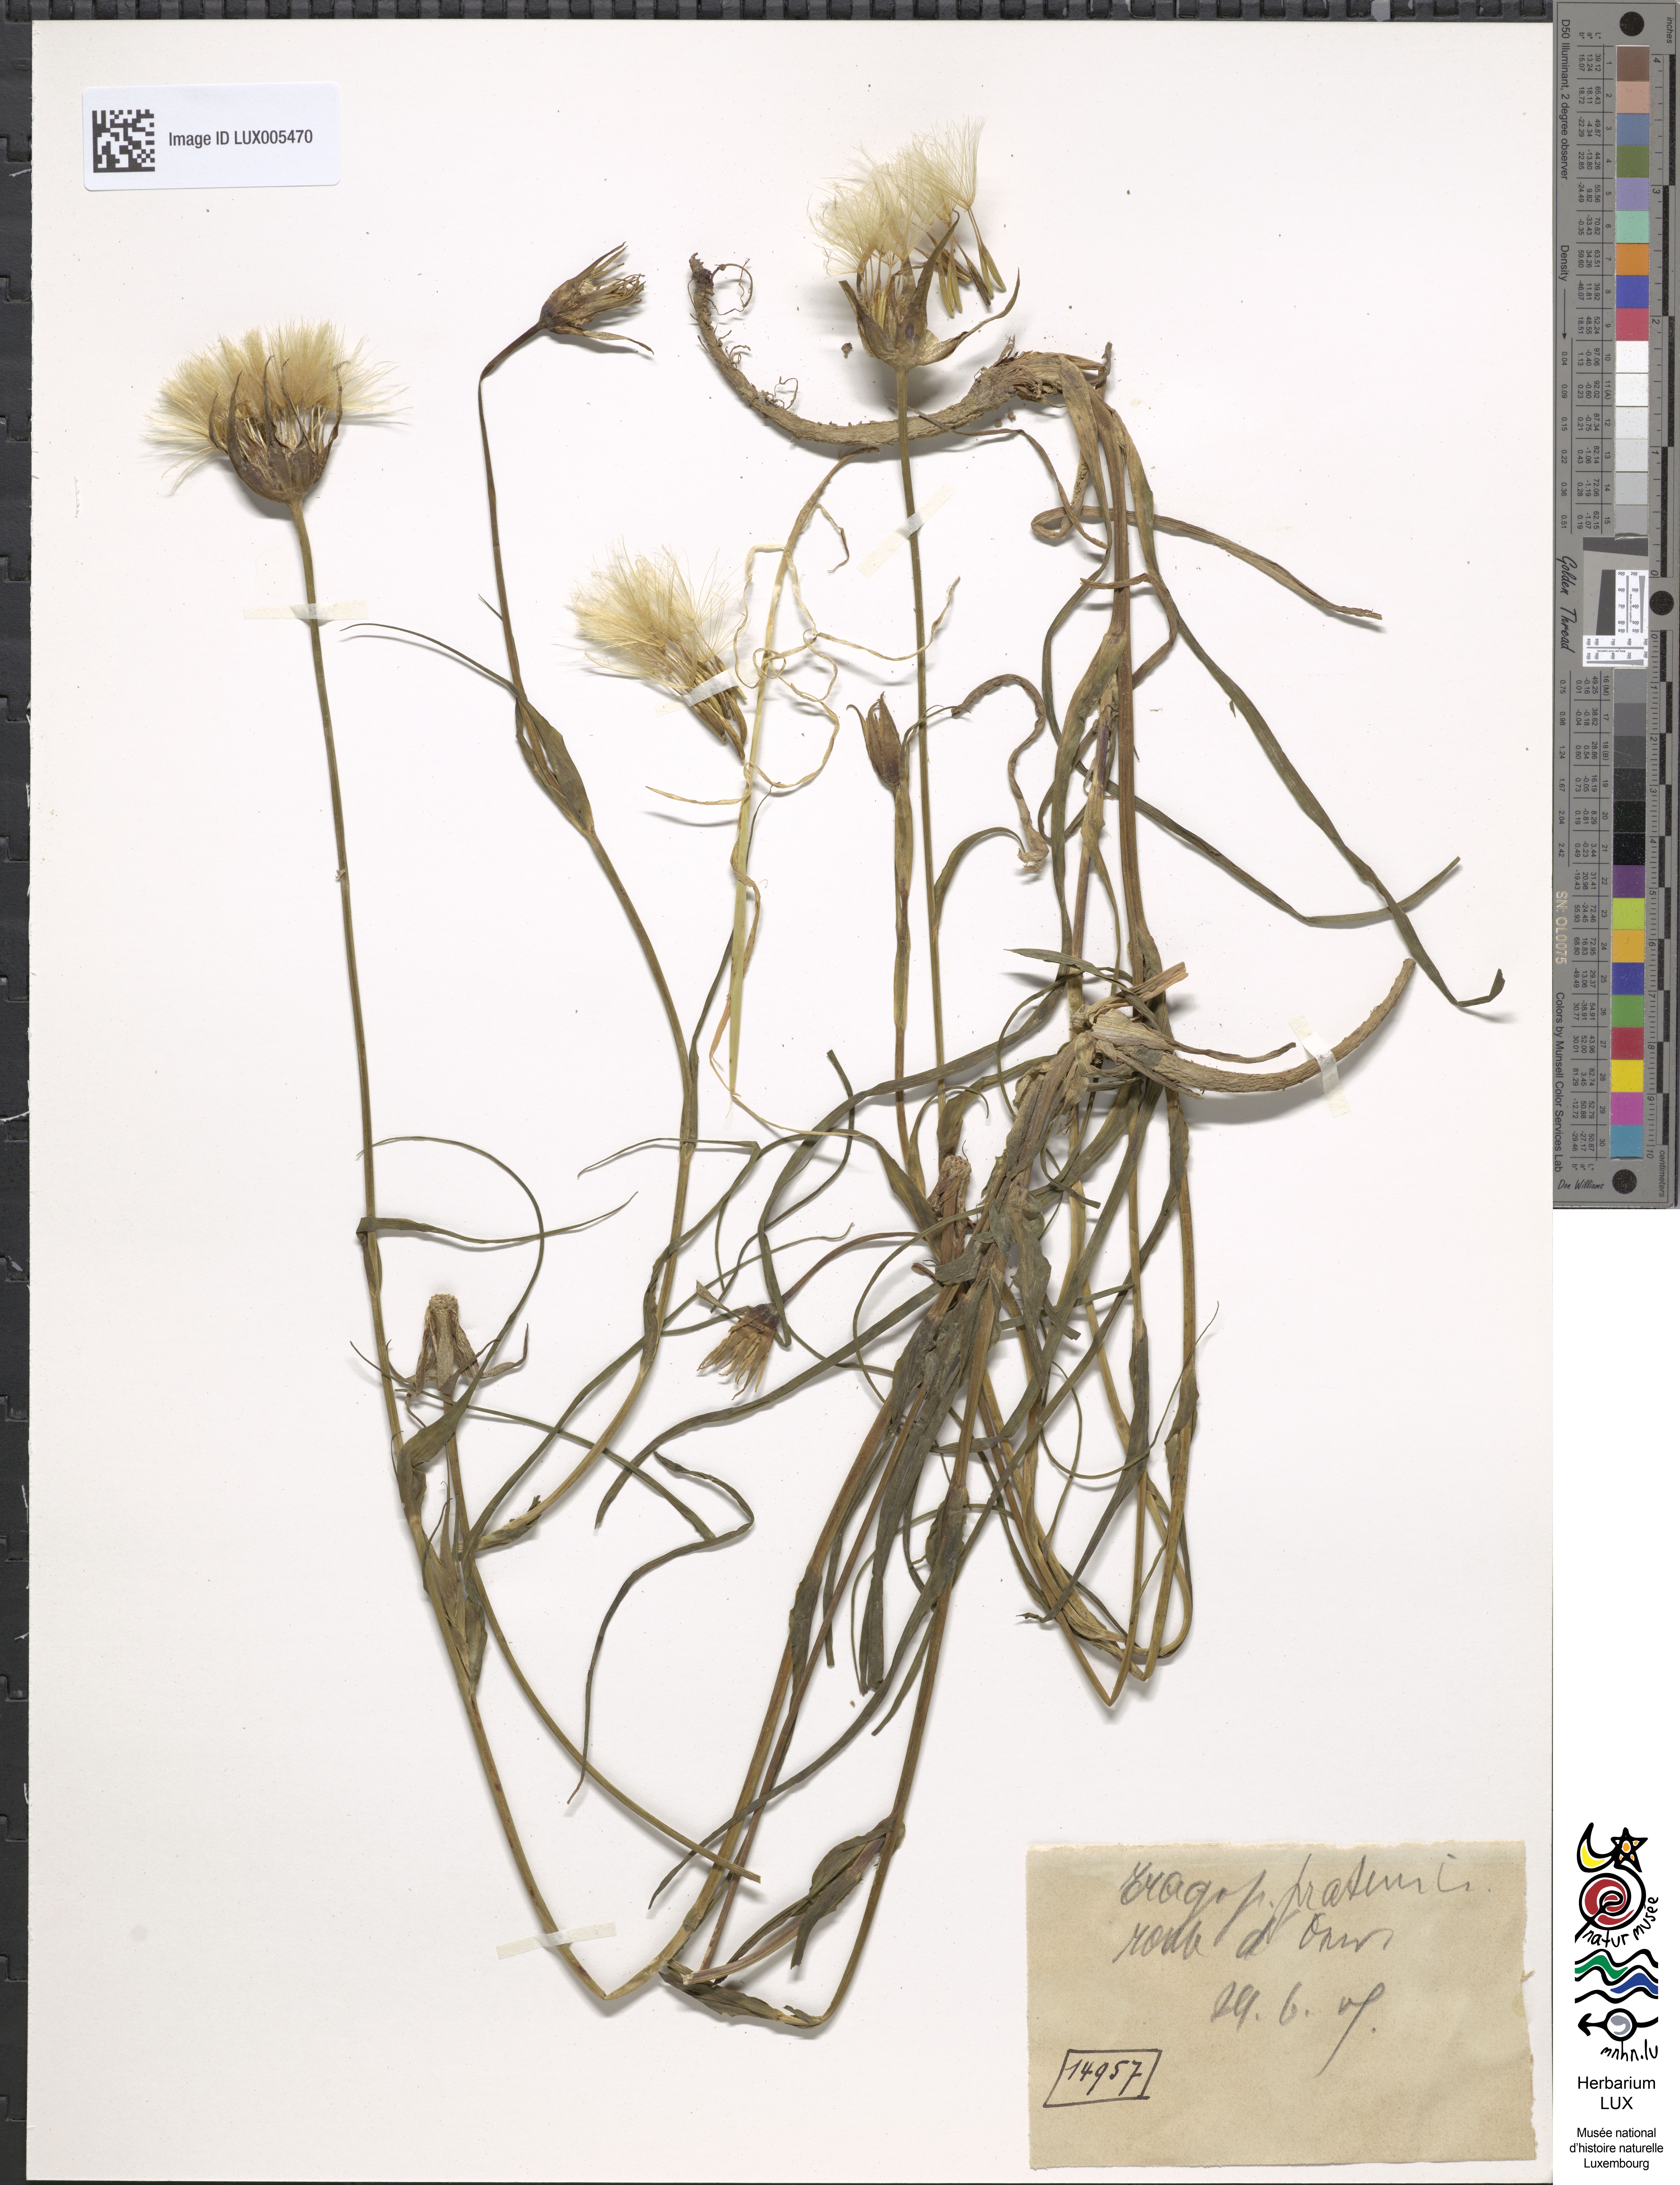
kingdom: Plantae
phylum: Tracheophyta
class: Magnoliopsida
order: Asterales
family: Asteraceae
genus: Tragopogon
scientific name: Tragopogon pratensis
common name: Goat's-beard
